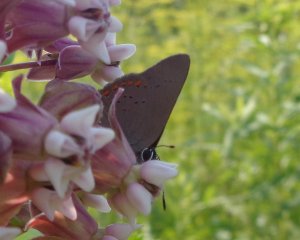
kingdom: Animalia
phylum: Arthropoda
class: Insecta
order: Lepidoptera
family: Lycaenidae
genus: Strymon
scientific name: Strymon acadica
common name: Acadian Hairstreak
